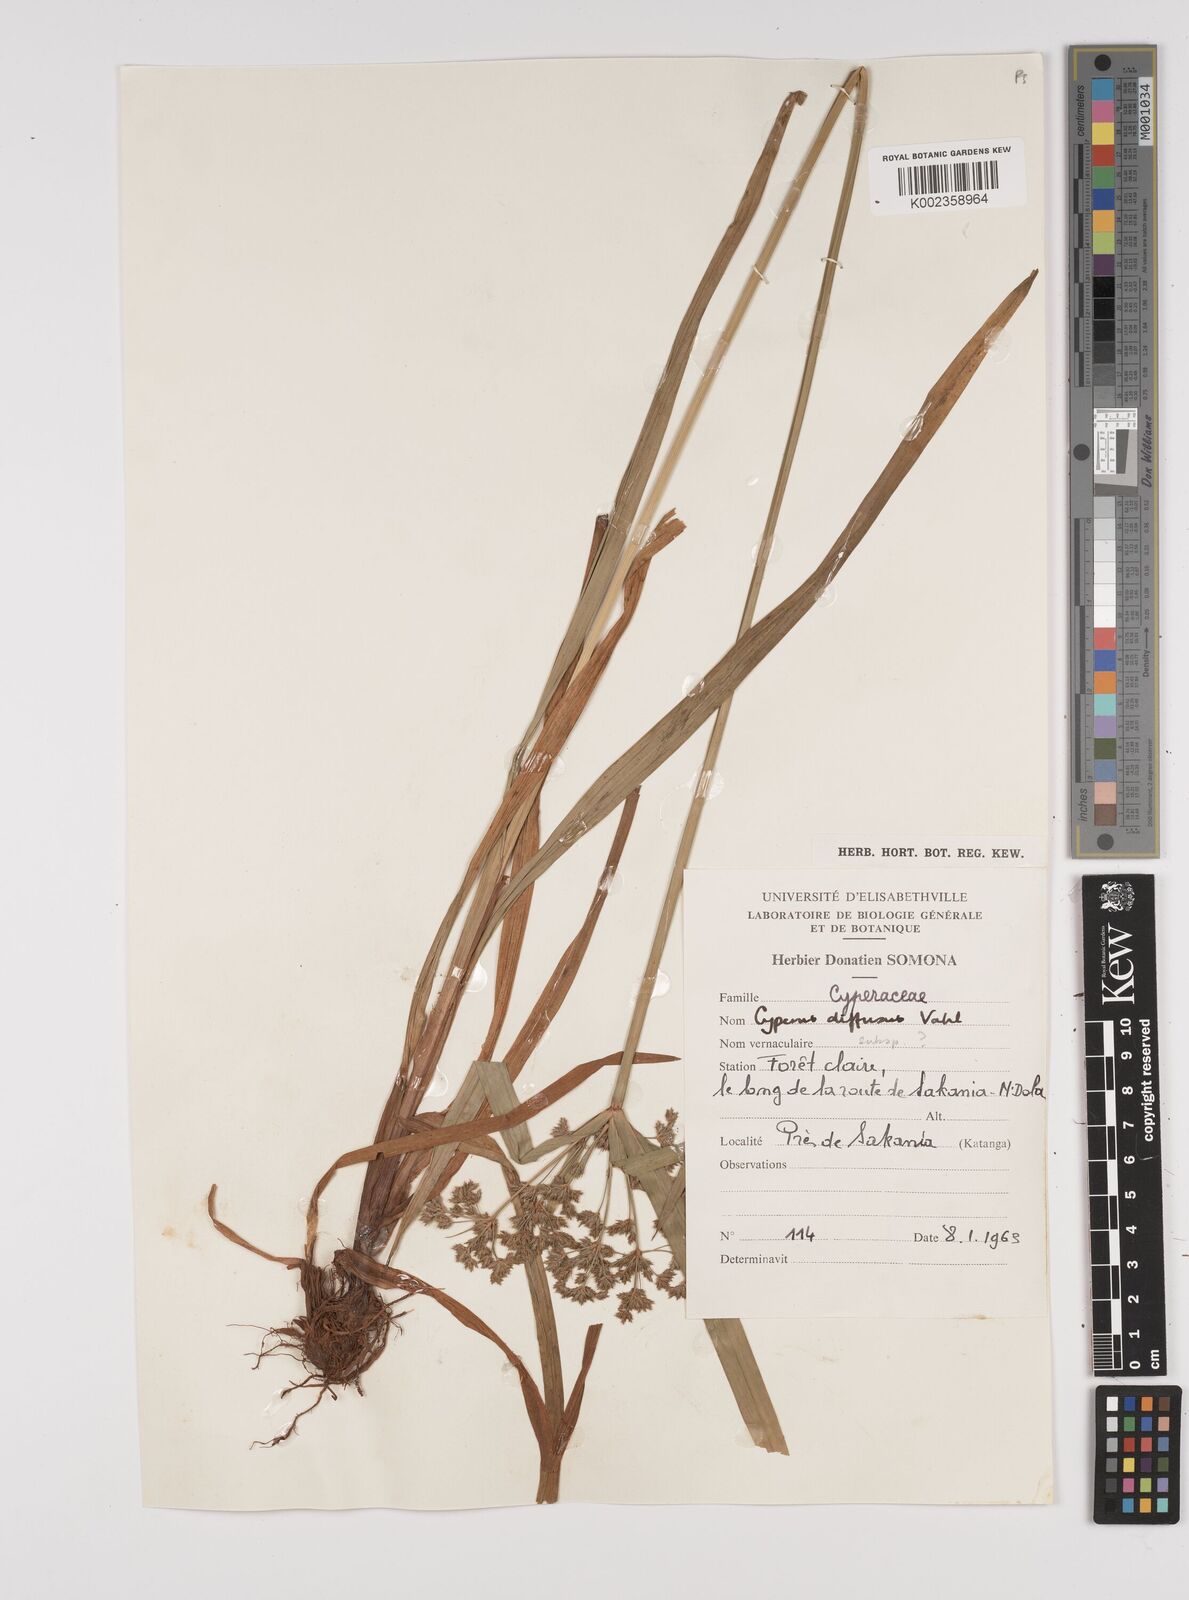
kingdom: Plantae
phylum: Tracheophyta
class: Liliopsida
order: Poales
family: Cyperaceae
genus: Cyperus
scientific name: Cyperus diffusus
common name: Dwarf umbrella grass
